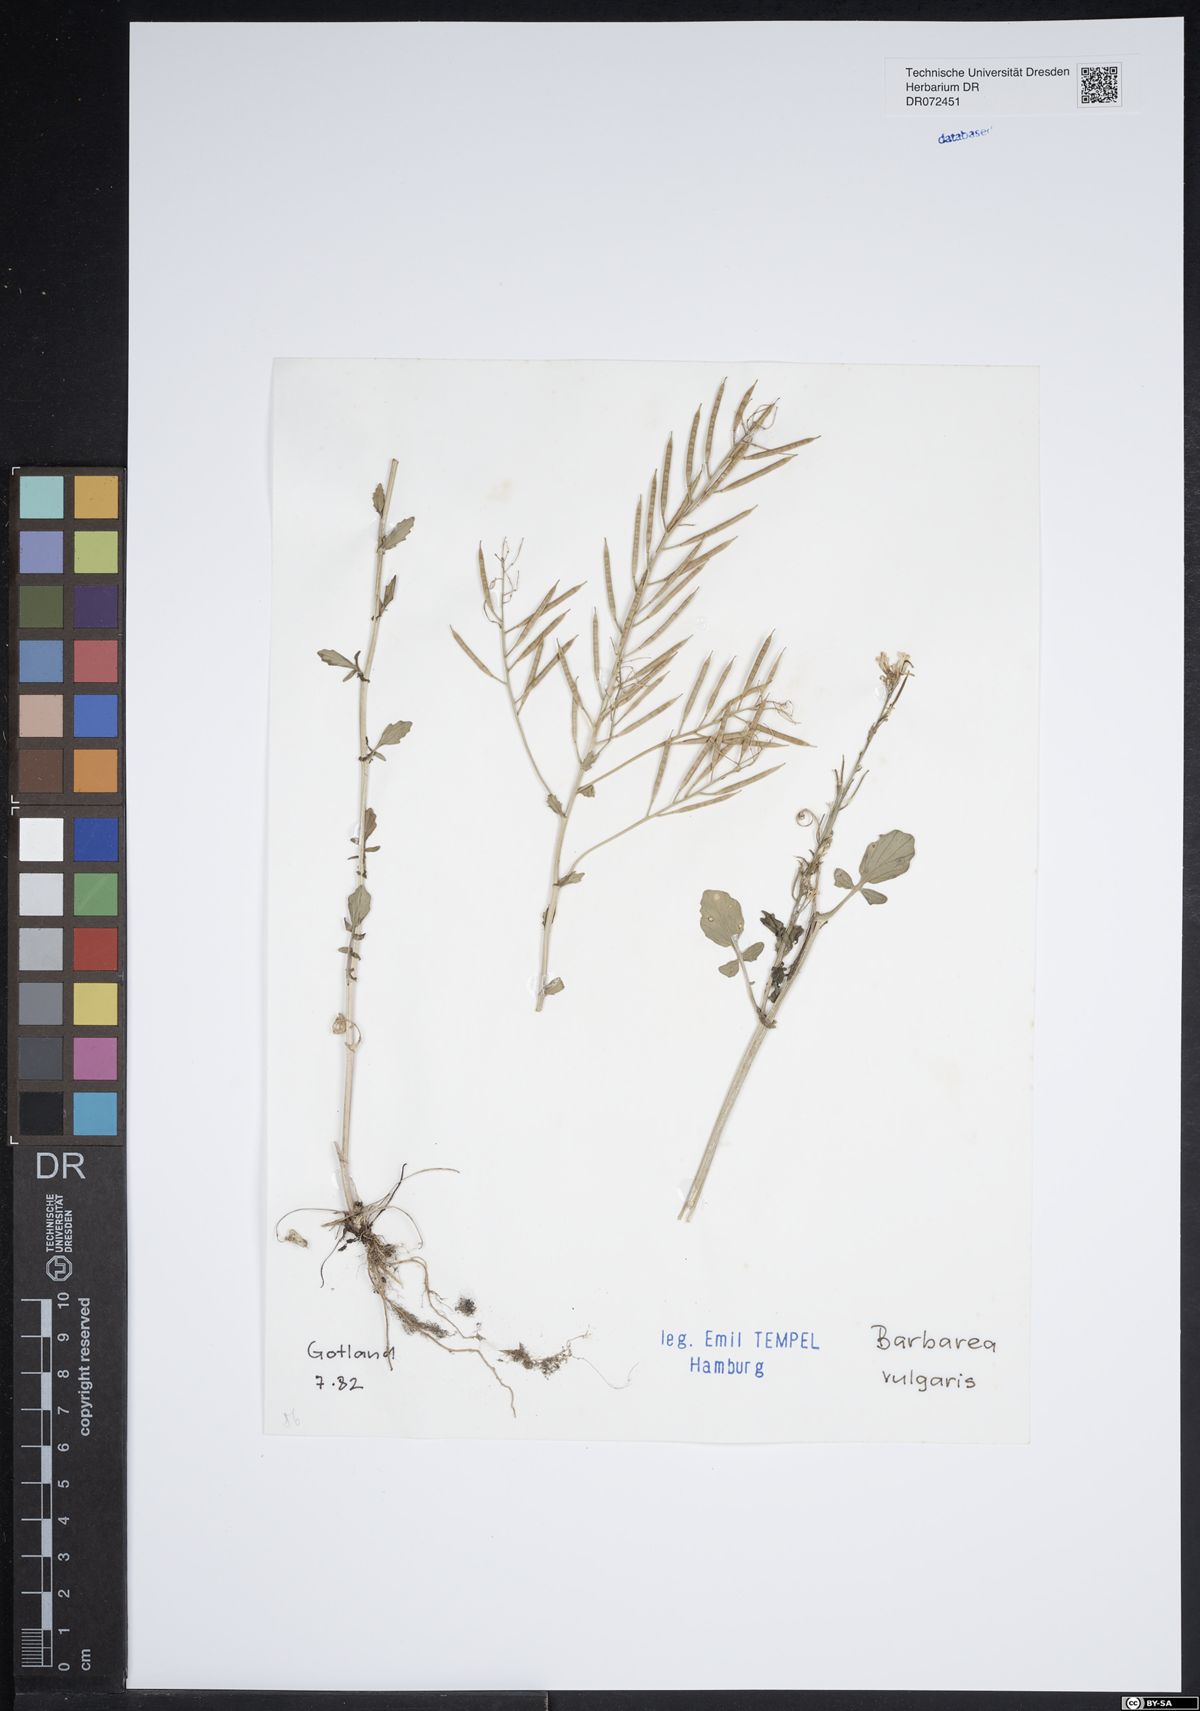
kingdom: Plantae
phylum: Tracheophyta
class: Magnoliopsida
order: Brassicales
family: Brassicaceae
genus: Barbarea
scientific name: Barbarea vulgaris
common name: Cressy-greens
